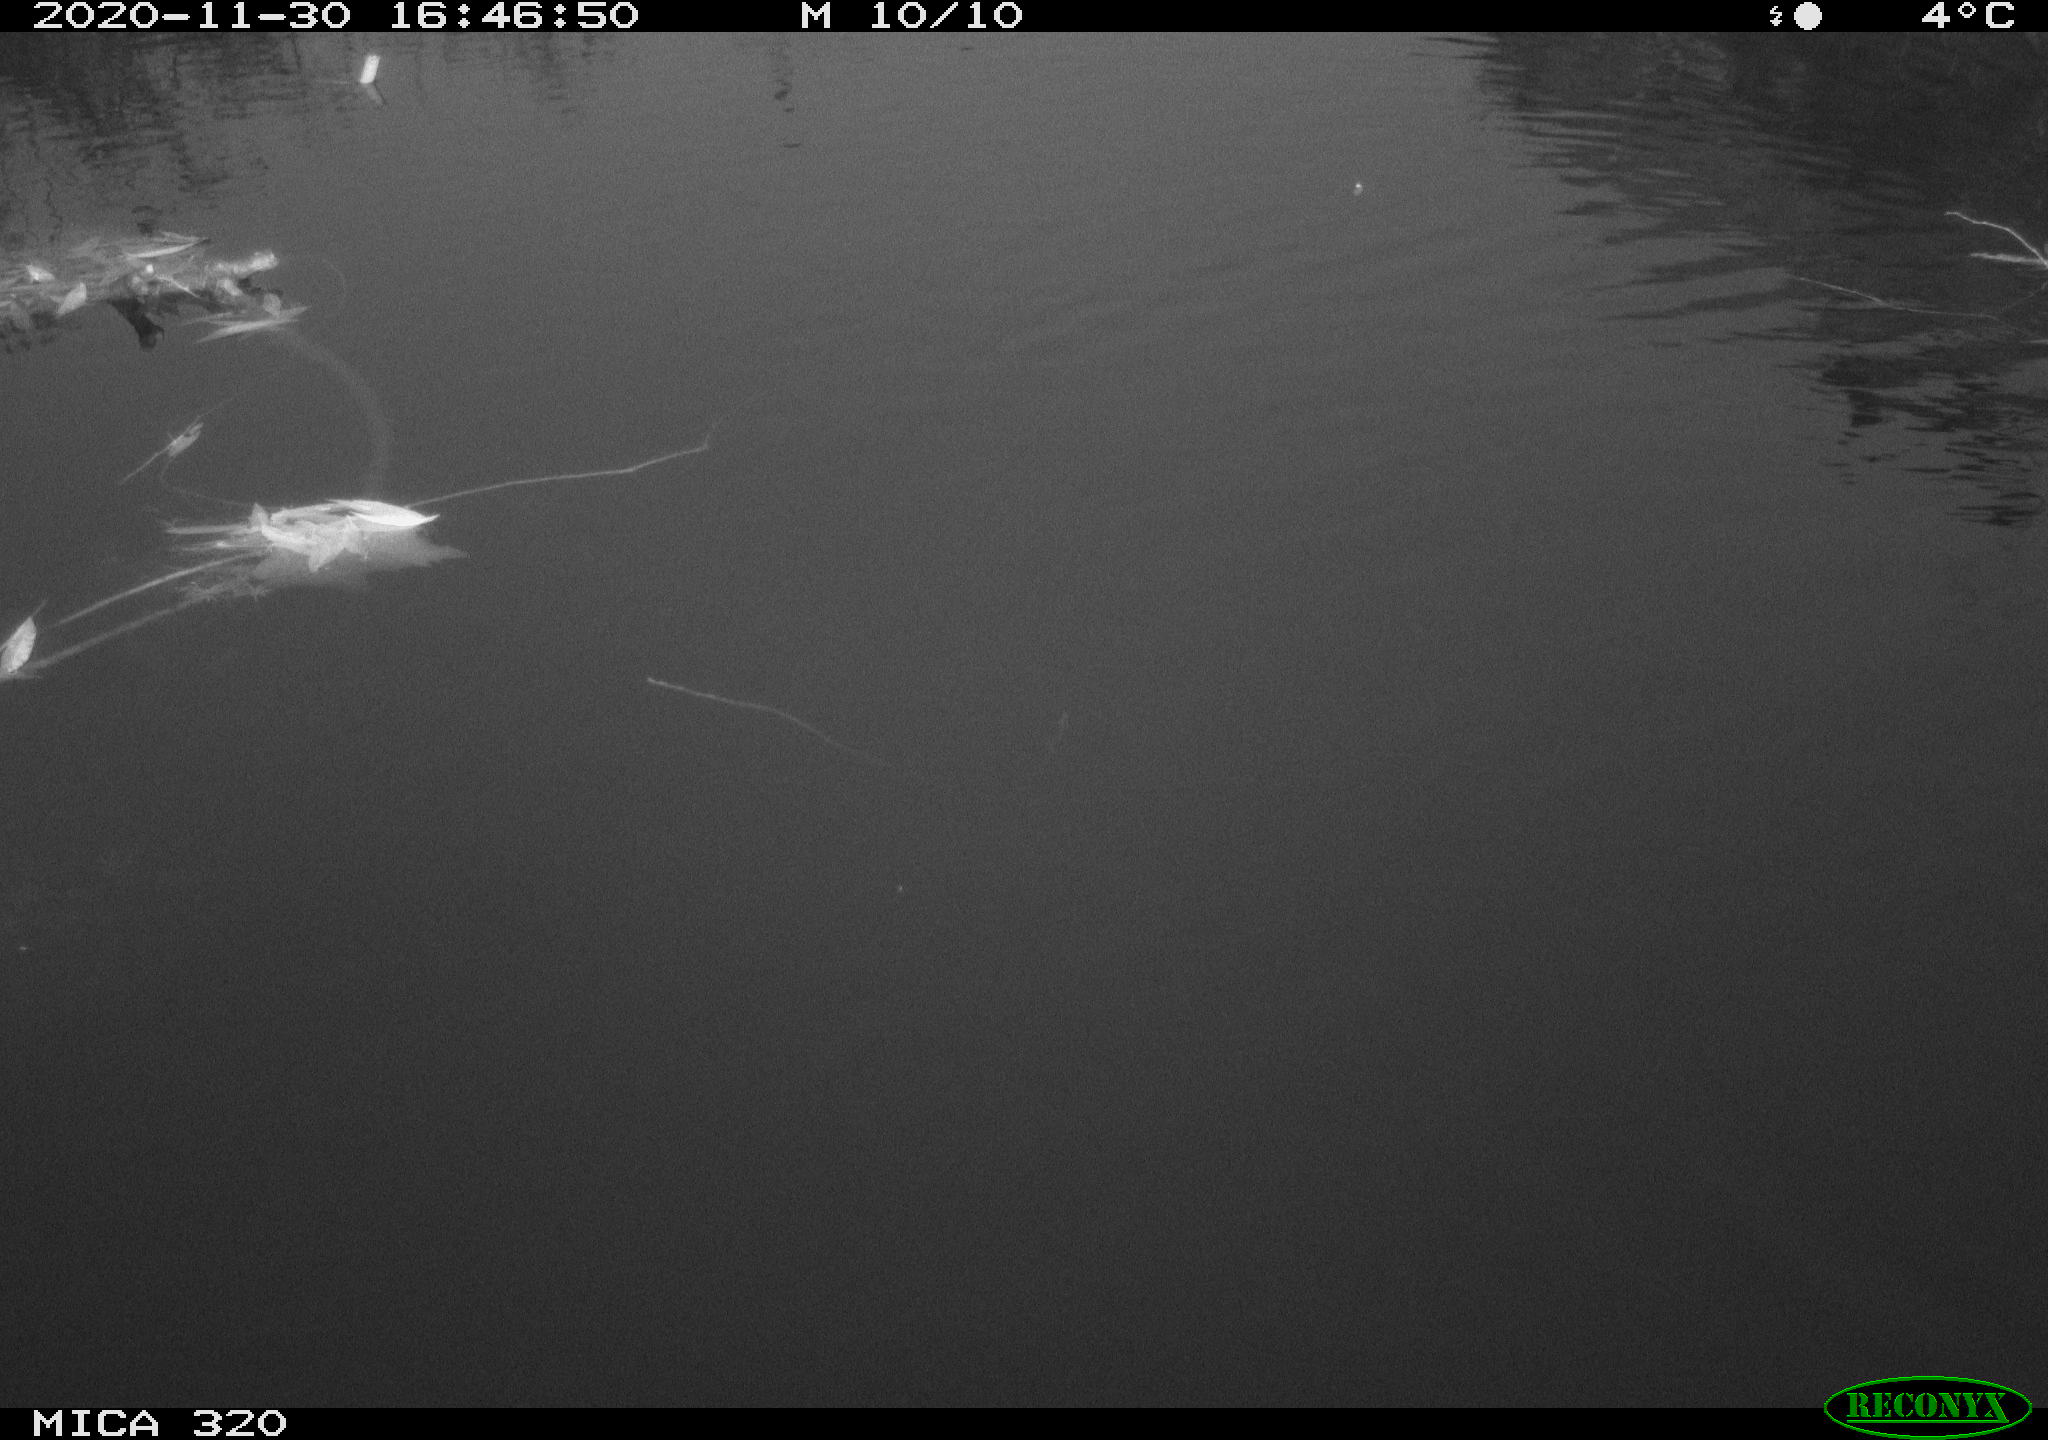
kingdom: Animalia
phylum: Chordata
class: Aves
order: Gruiformes
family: Rallidae
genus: Gallinula
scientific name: Gallinula chloropus
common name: Common moorhen
